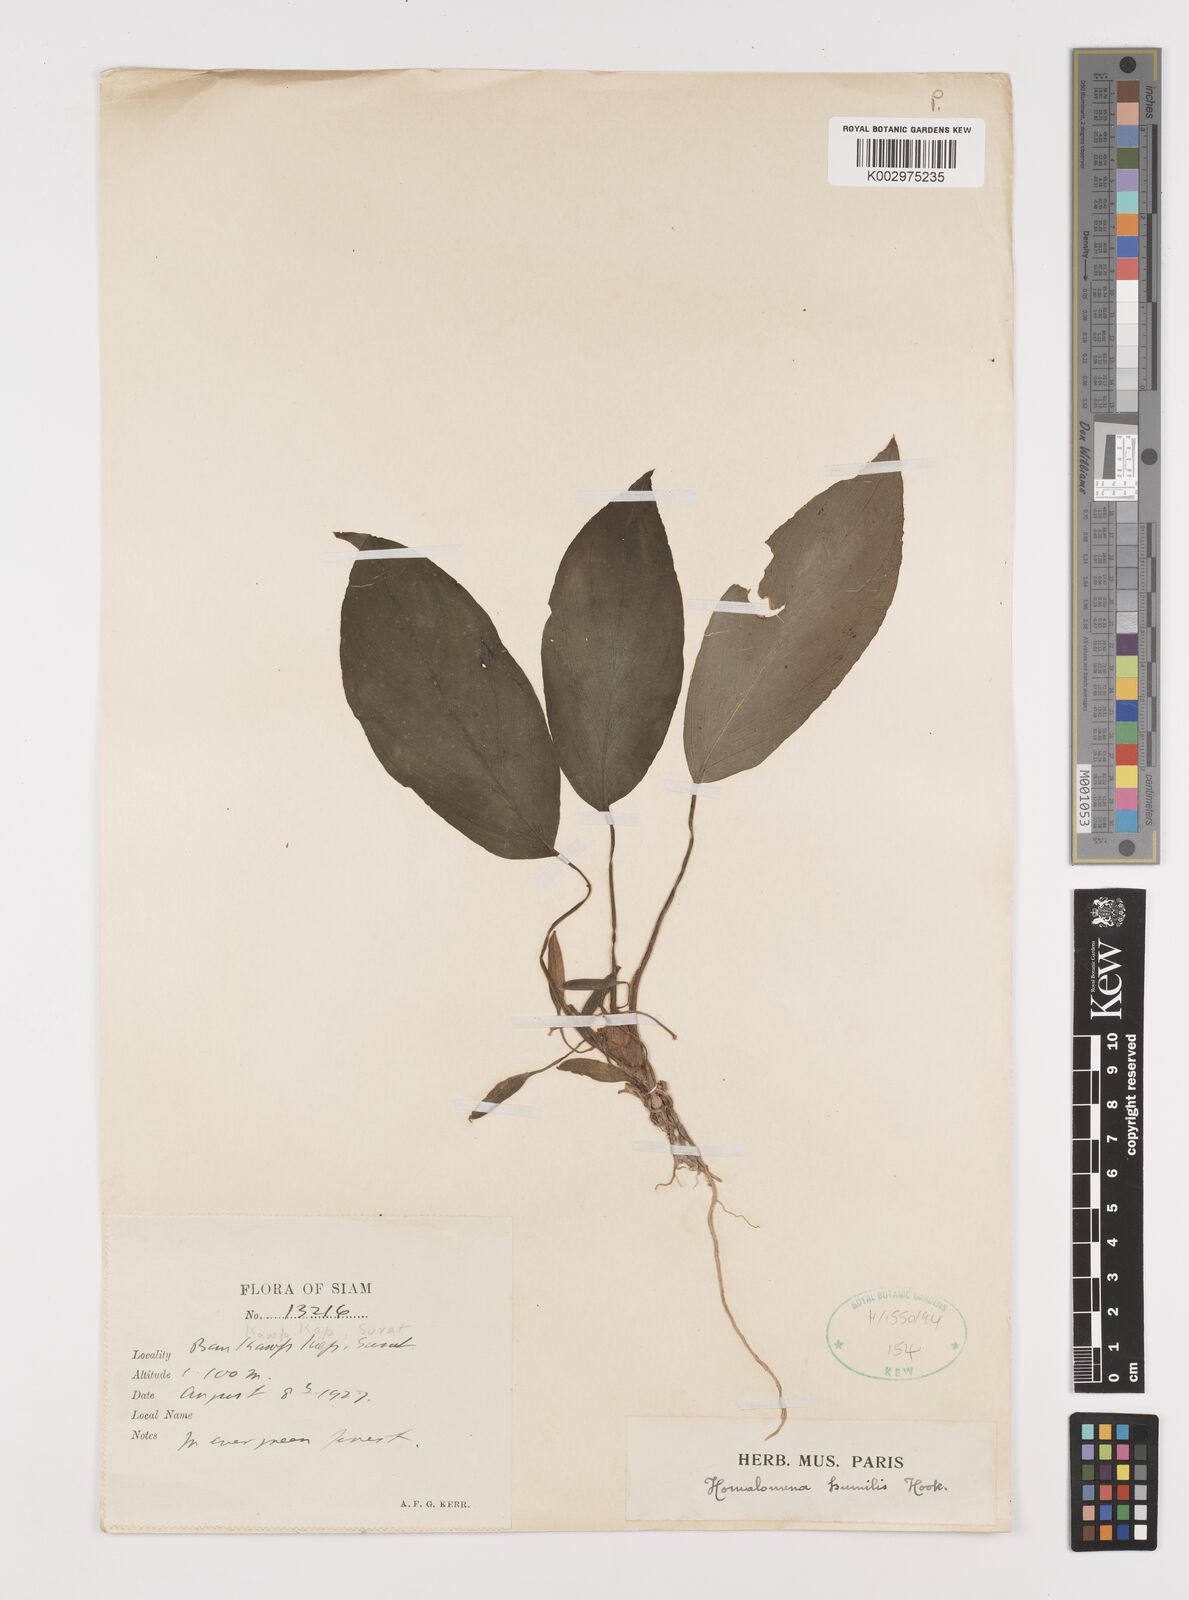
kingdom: Plantae
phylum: Tracheophyta
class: Liliopsida
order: Alismatales
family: Araceae
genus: Homalomena
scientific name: Homalomena humilis
